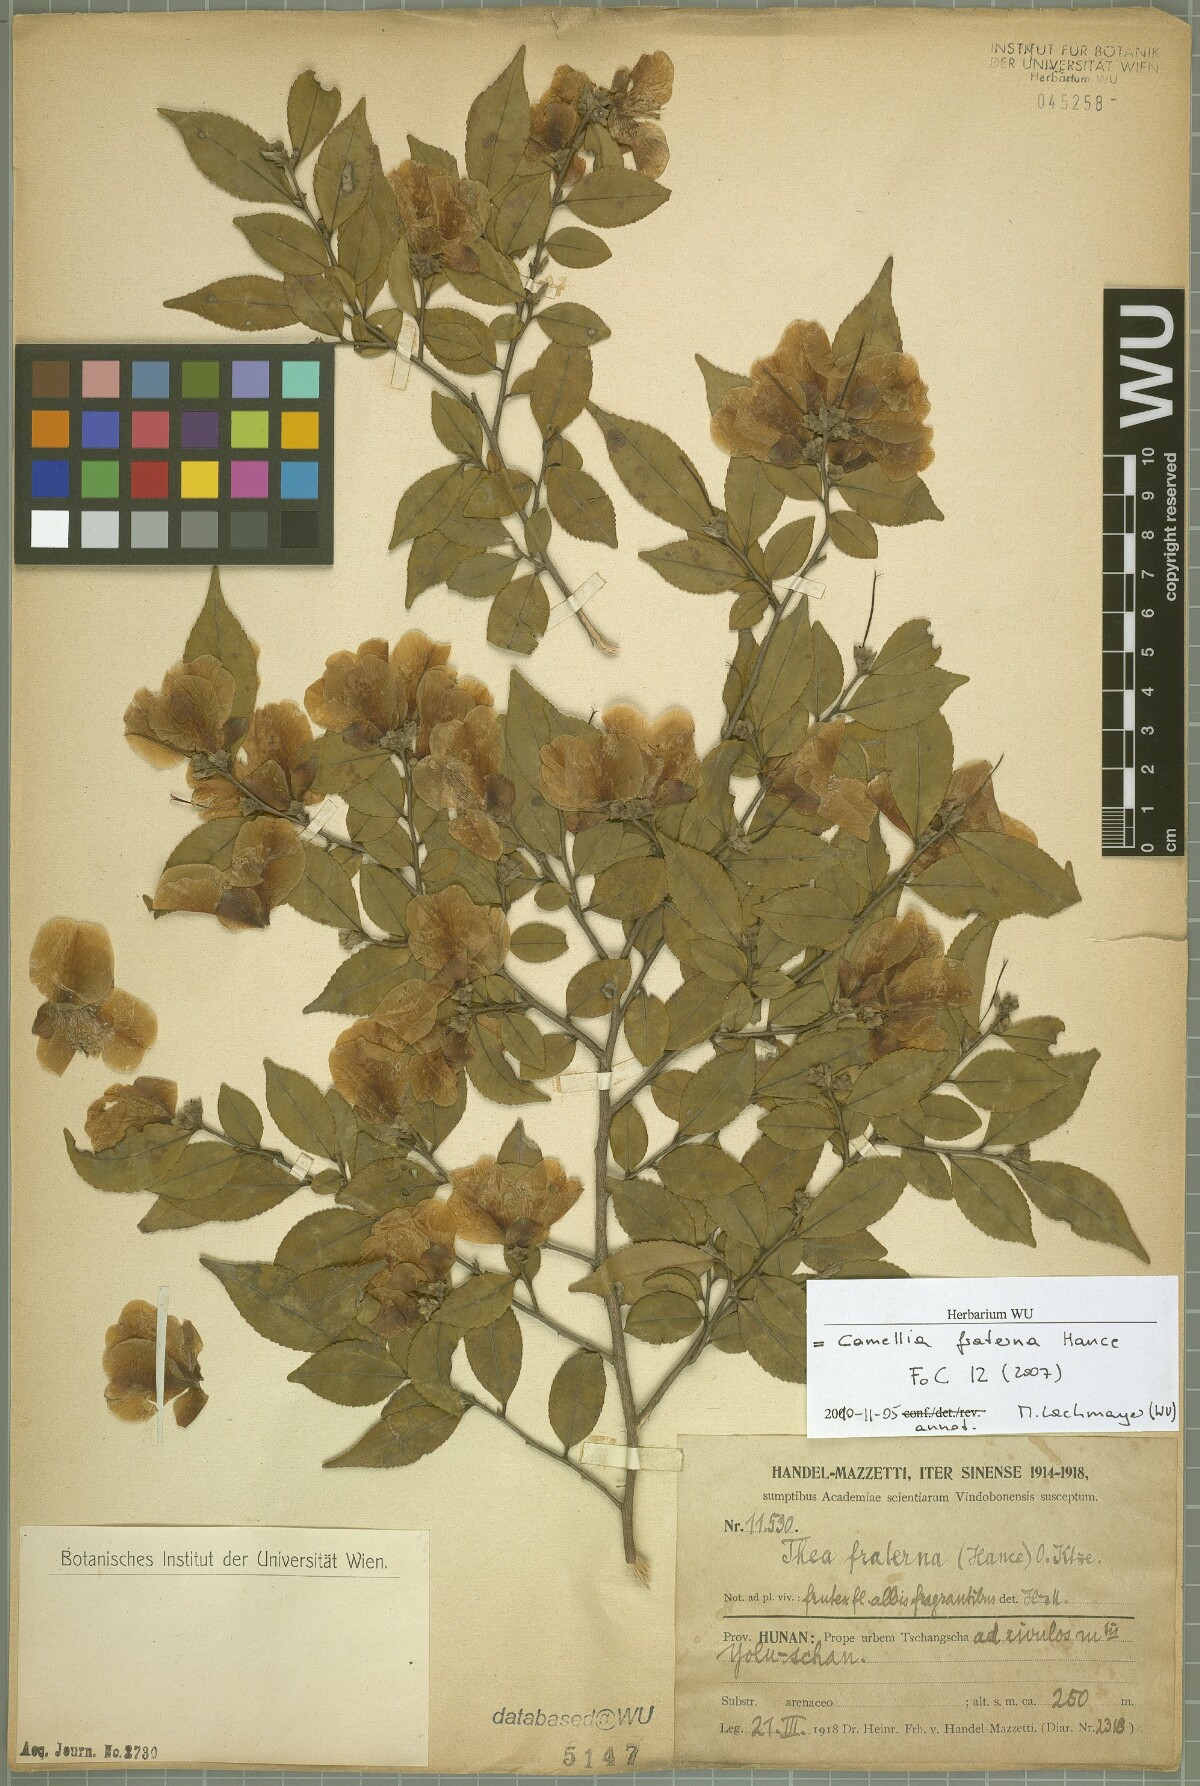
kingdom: Plantae
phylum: Tracheophyta
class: Magnoliopsida
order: Ericales
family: Theaceae
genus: Camellia
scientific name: Camellia fraterna
